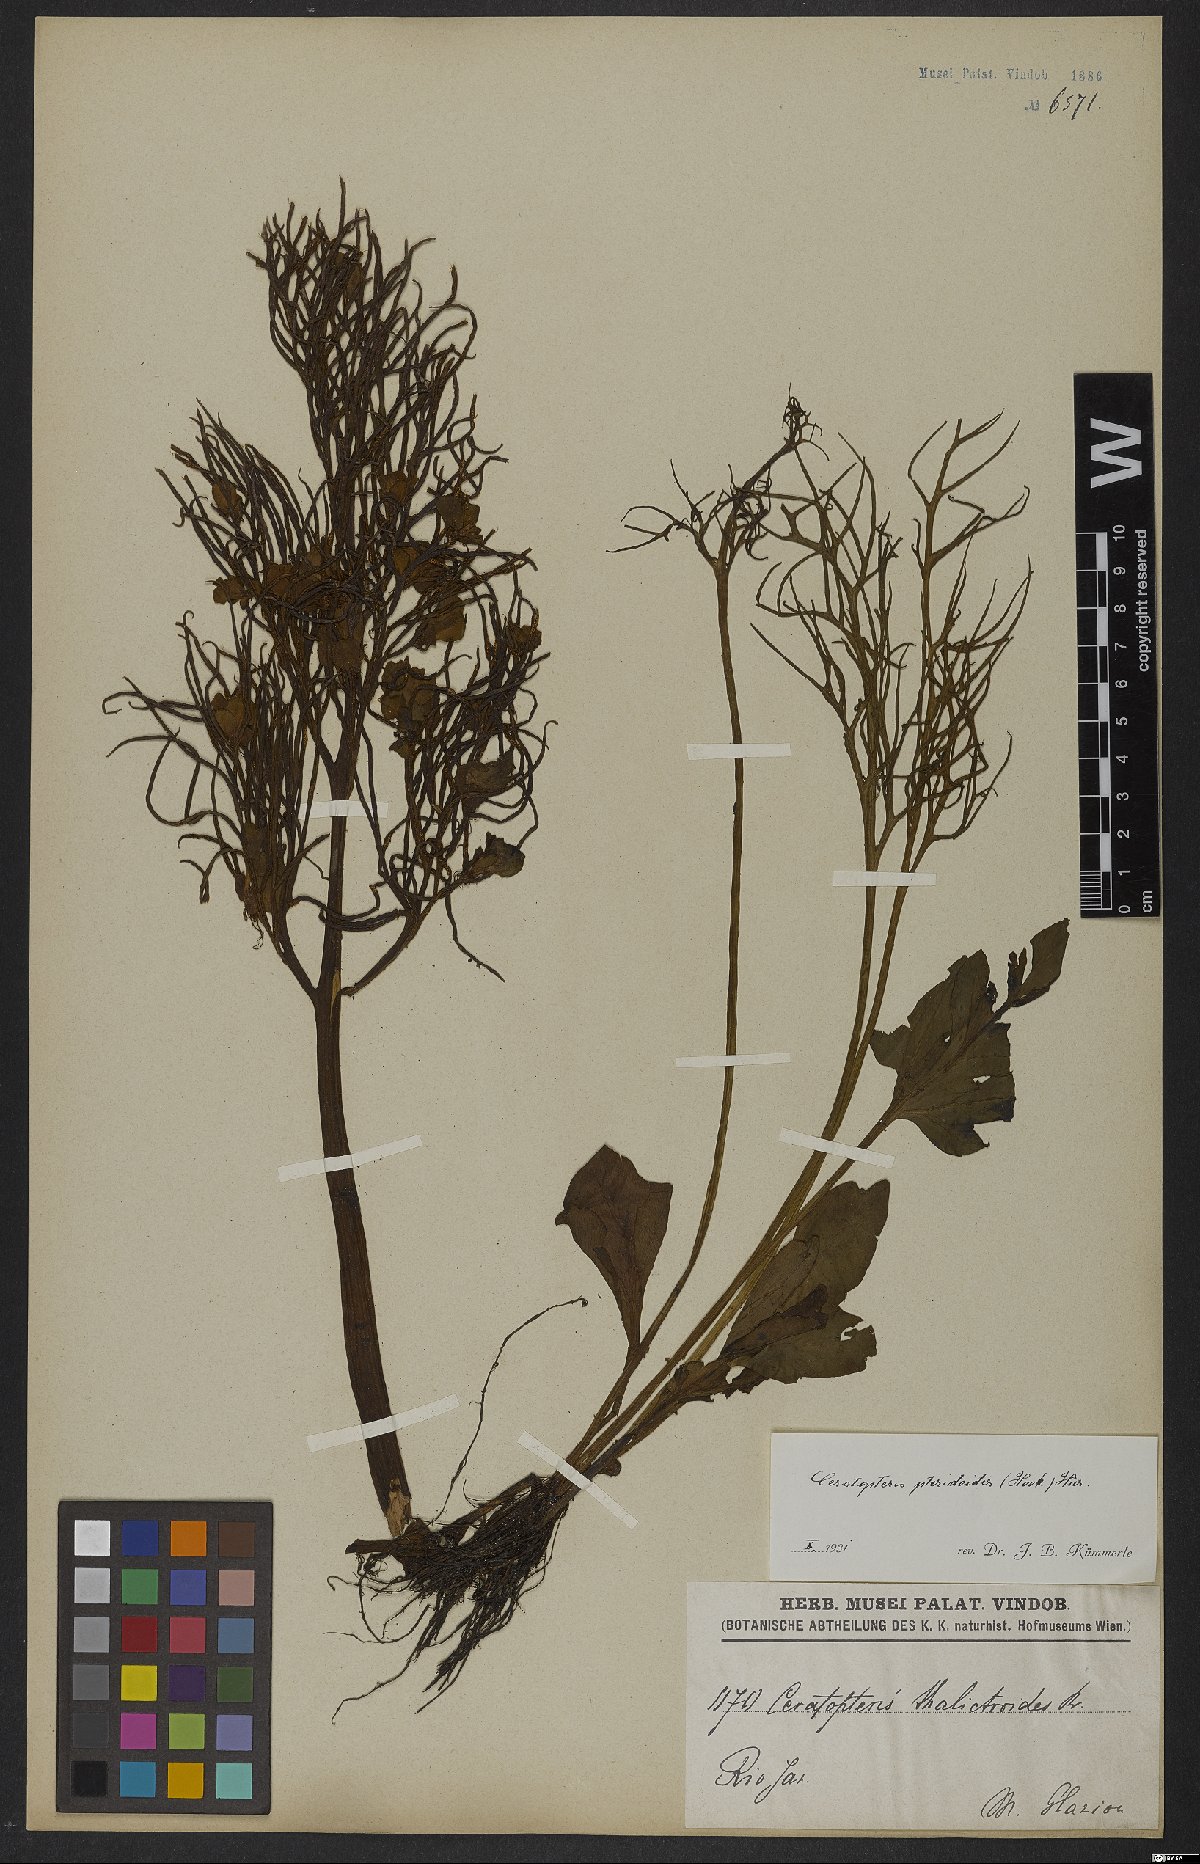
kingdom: Plantae
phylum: Tracheophyta
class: Polypodiopsida
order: Polypodiales
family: Pteridaceae
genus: Ceratopteris
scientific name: Ceratopteris pteridoides
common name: Floating fern
